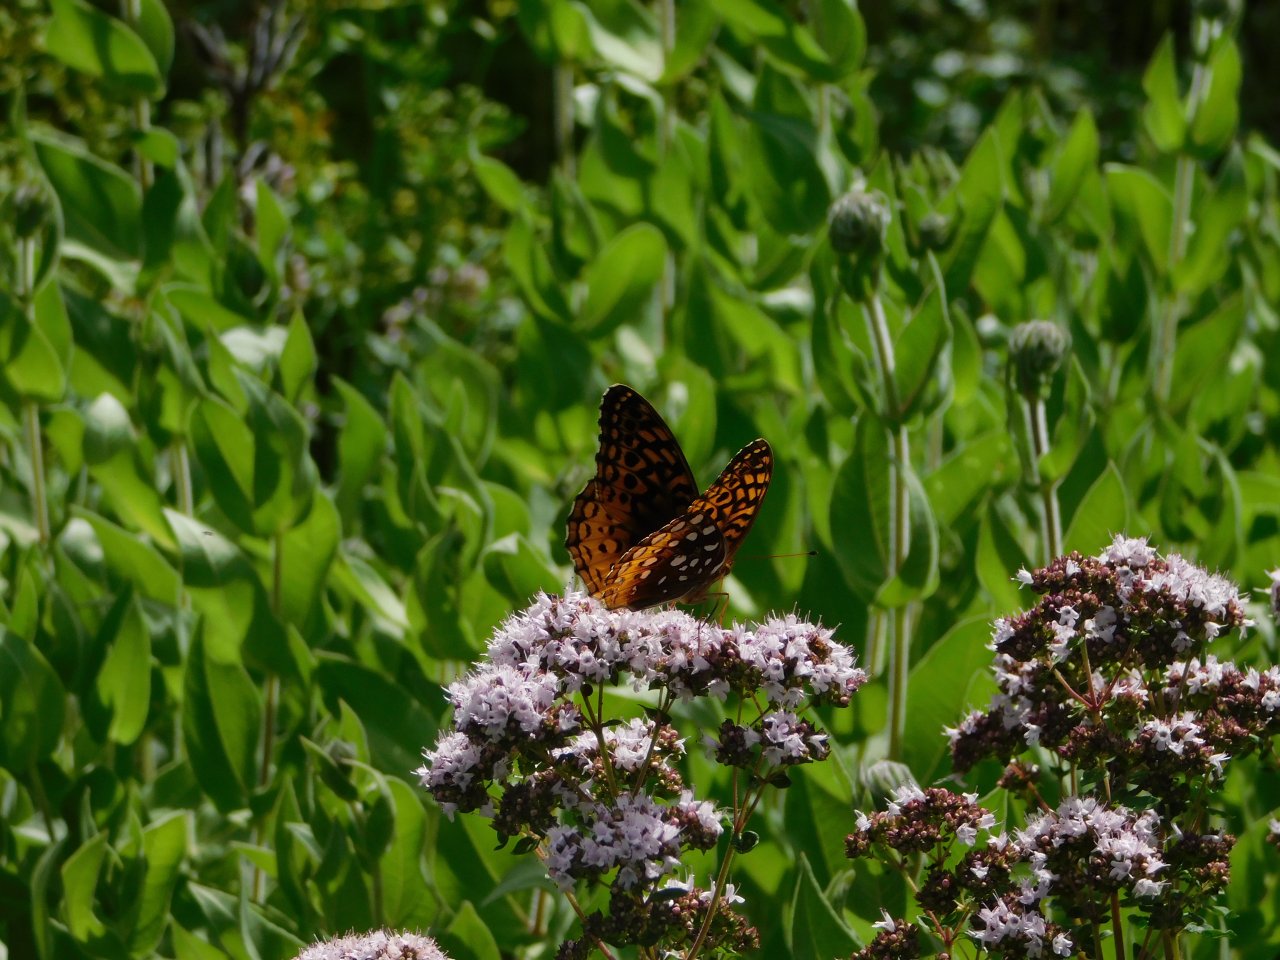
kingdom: Animalia
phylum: Arthropoda
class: Insecta
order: Lepidoptera
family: Nymphalidae
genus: Speyeria
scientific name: Speyeria atlantis
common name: Atlantis Fritillary
